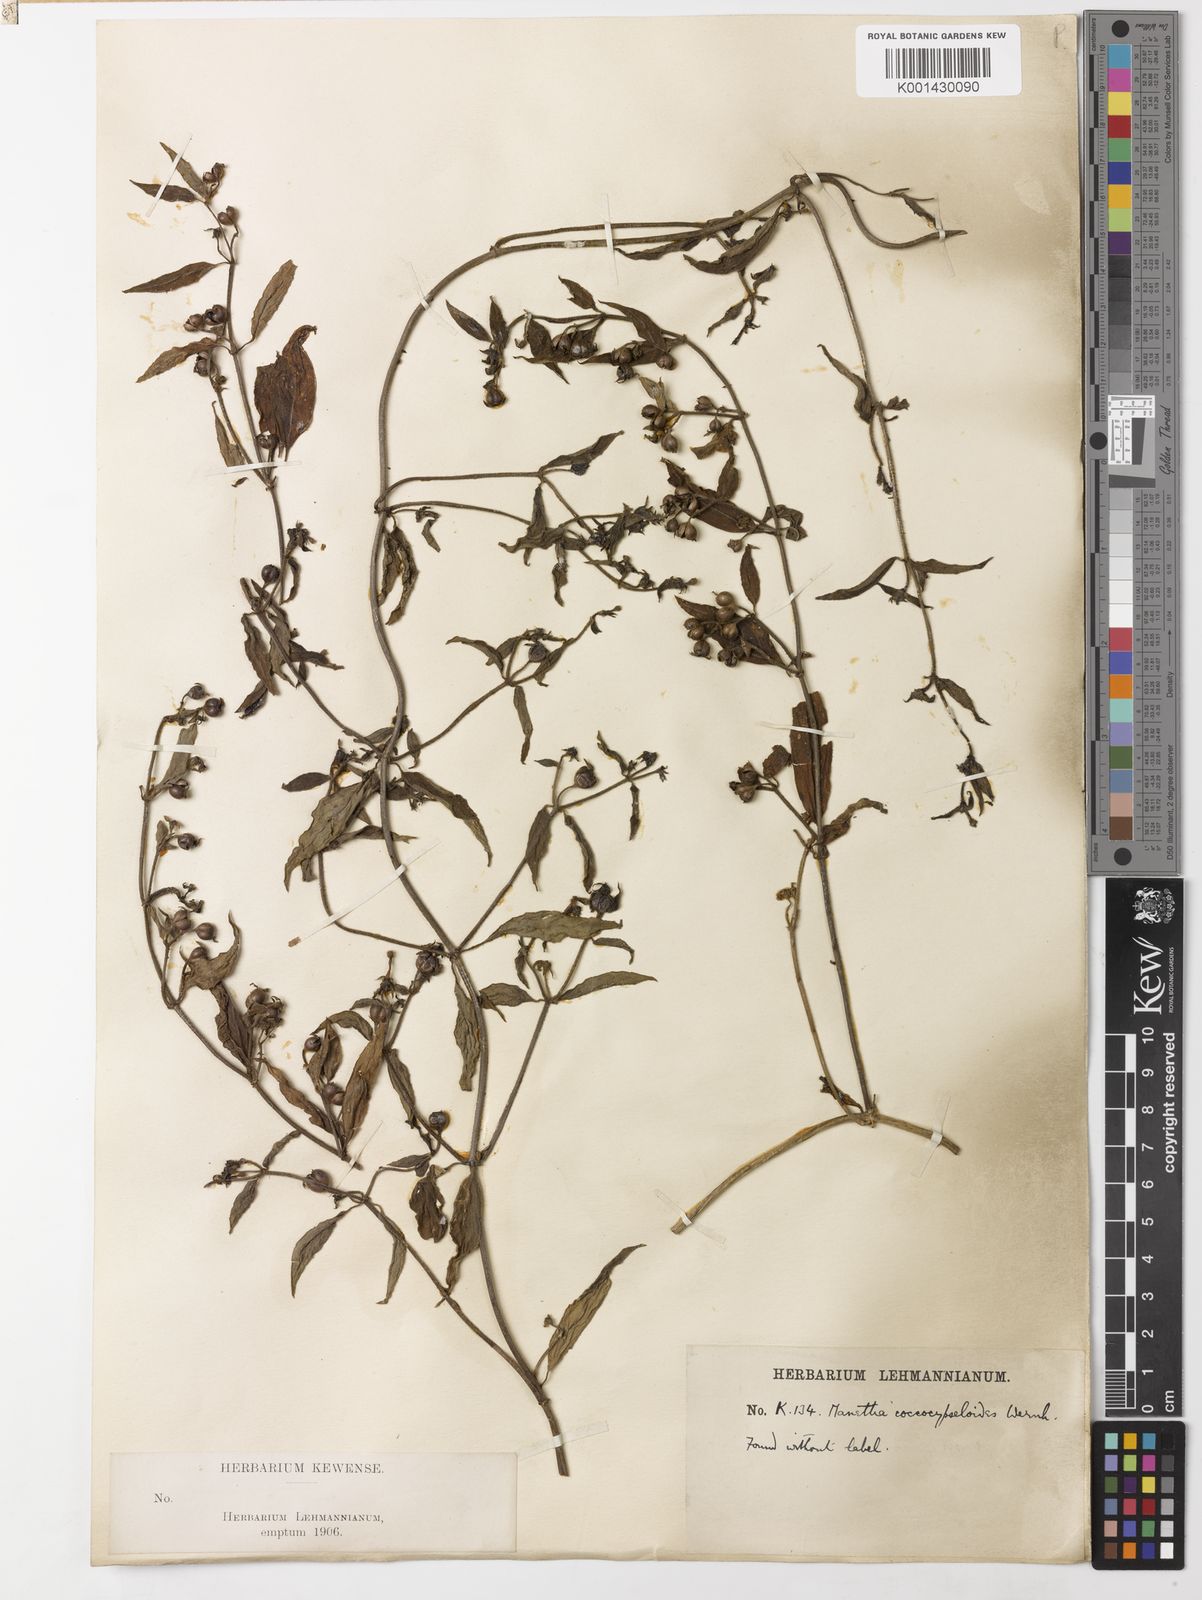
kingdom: Plantae
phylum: Tracheophyta
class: Magnoliopsida
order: Gentianales
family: Rubiaceae
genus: Manettia
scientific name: Manettia coccocypseloides
